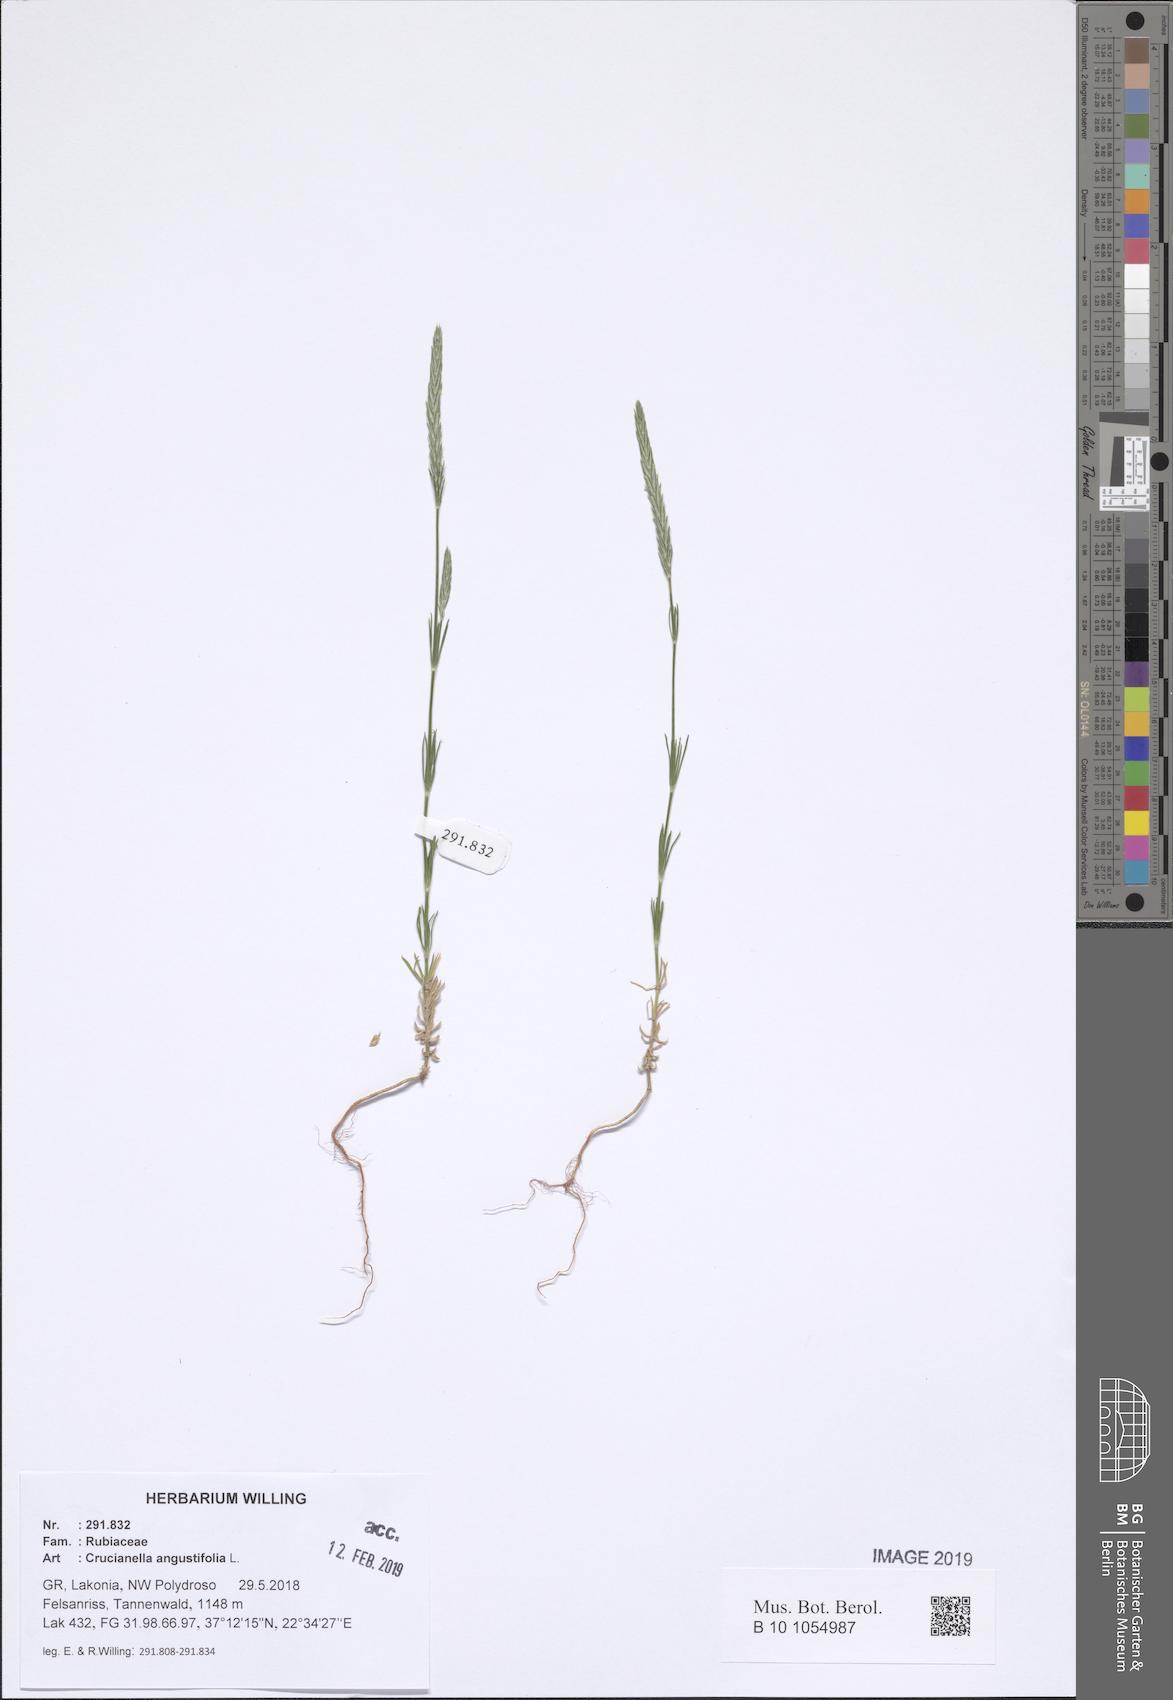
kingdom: Plantae
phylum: Tracheophyta
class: Magnoliopsida
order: Gentianales
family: Rubiaceae
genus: Crucianella
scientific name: Crucianella angustifolia
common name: Narrowleaf crucianella
